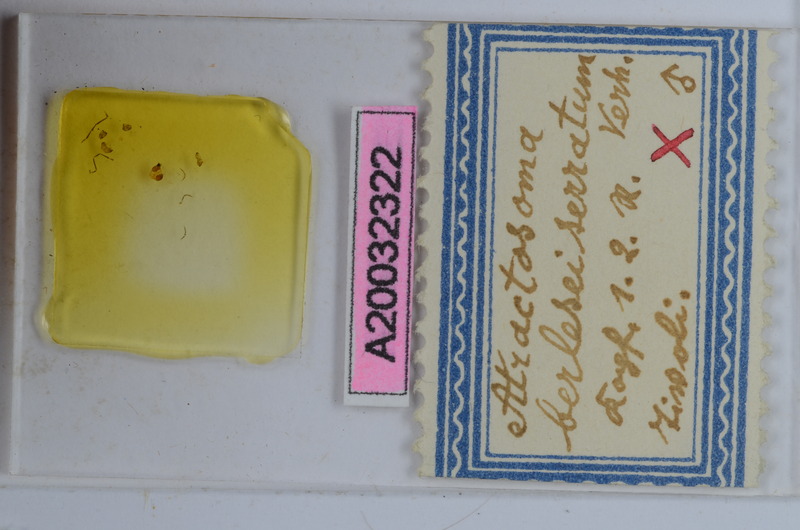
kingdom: Animalia
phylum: Arthropoda
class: Diplopoda
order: Chordeumatida
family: Craspedosomatidae
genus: Atractosoma
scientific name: Atractosoma cecconii
